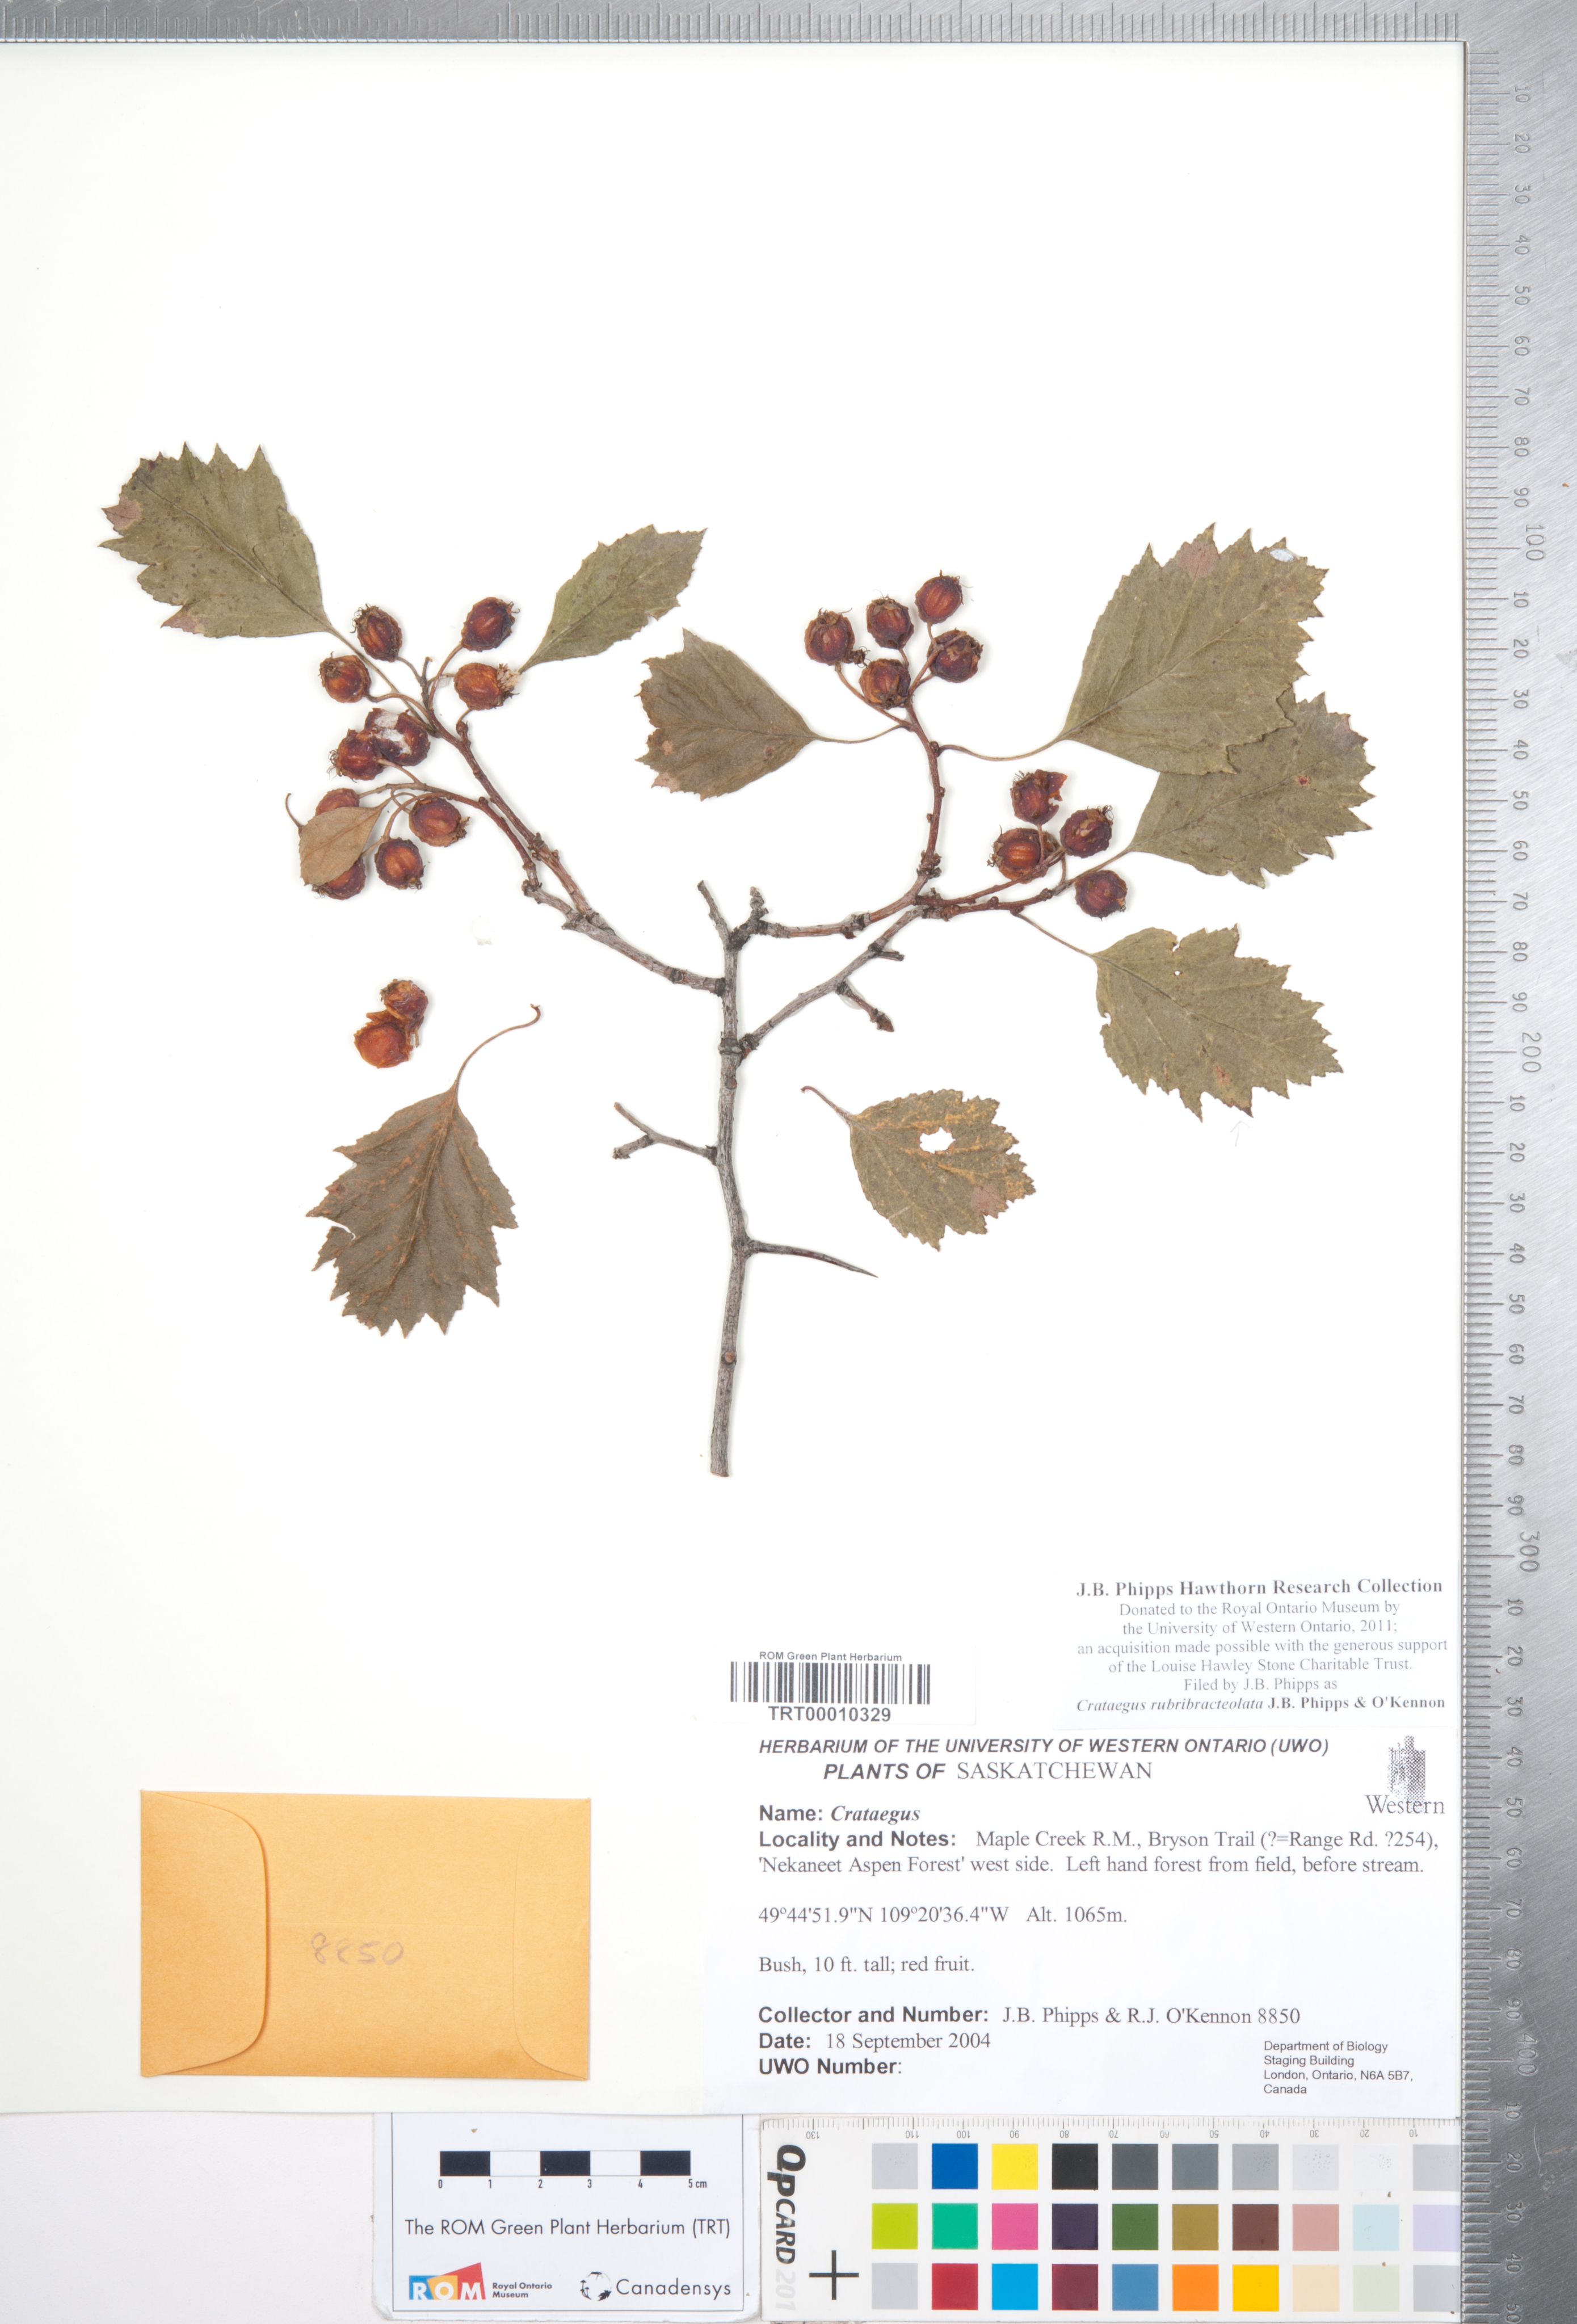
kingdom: Plantae
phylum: Tracheophyta
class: Magnoliopsida
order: Rosales
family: Rosaceae
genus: Crataegus
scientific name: Crataegus rubribracteolata
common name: Red bracteole hawthorn
